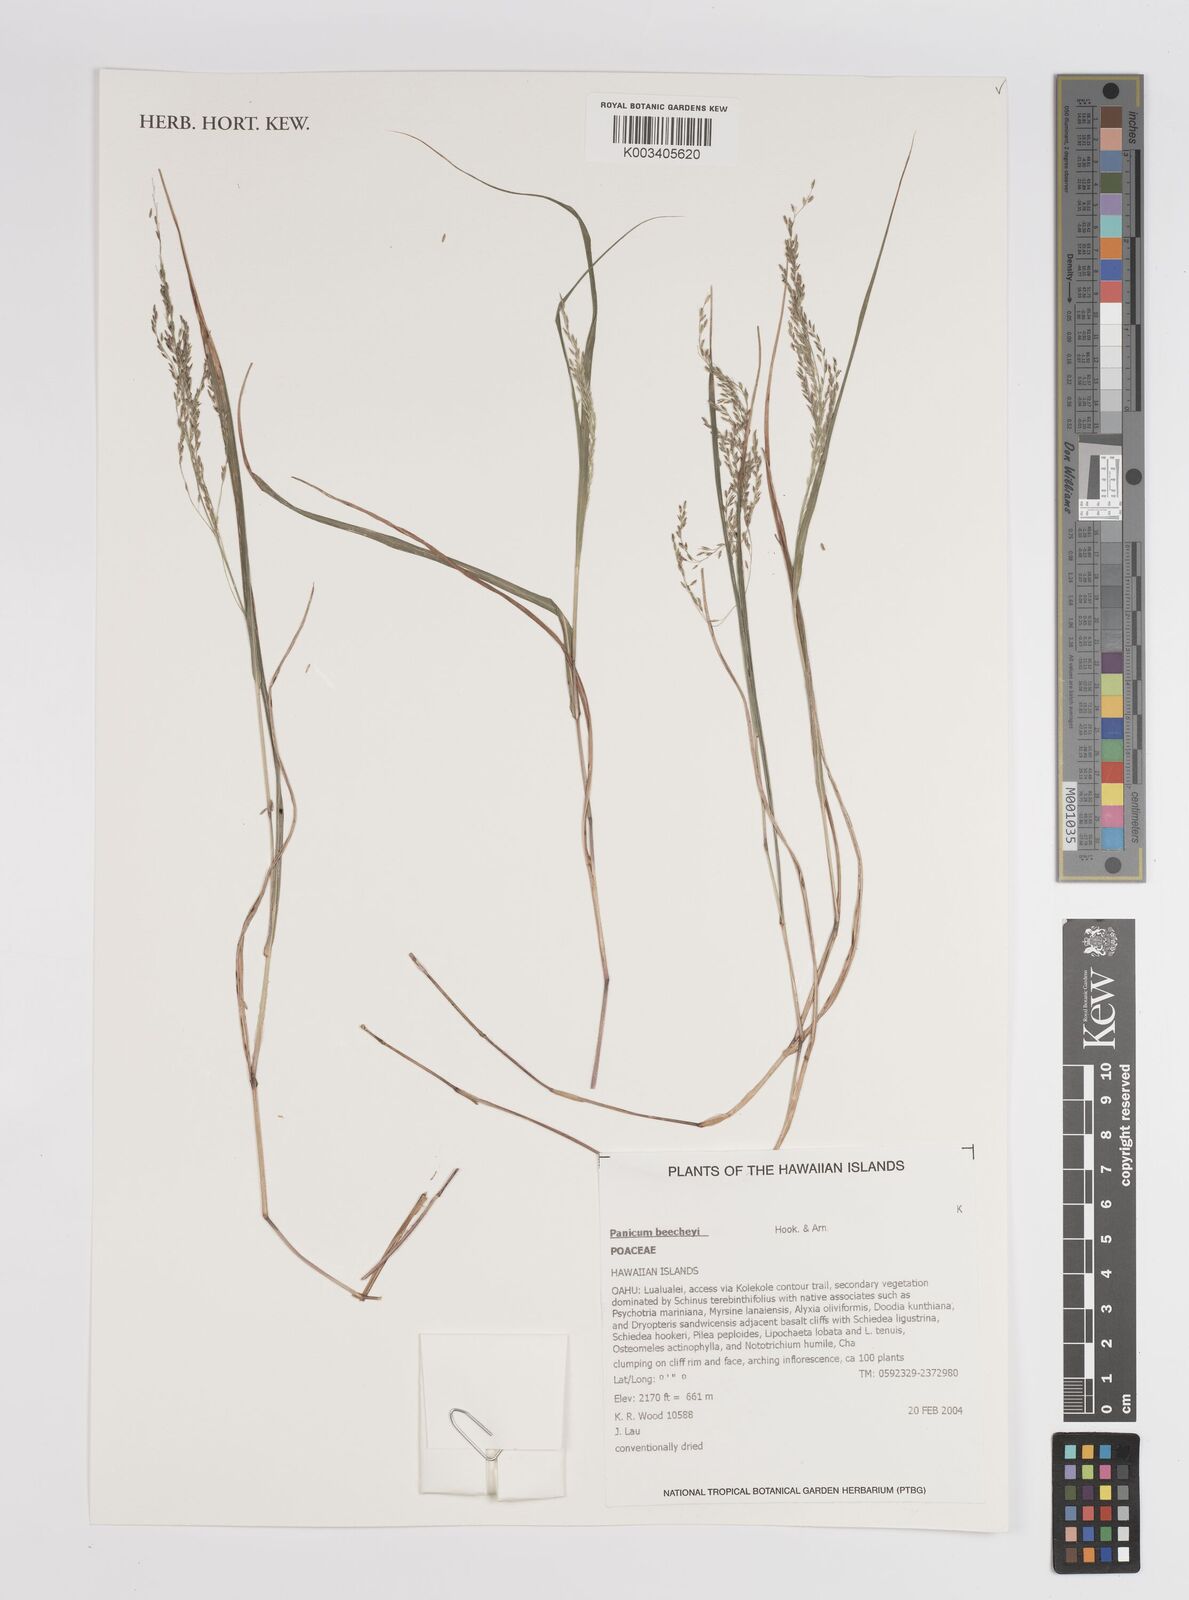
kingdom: Plantae
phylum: Tracheophyta
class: Liliopsida
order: Poales
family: Poaceae
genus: Panicum
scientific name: Panicum beecheyi
